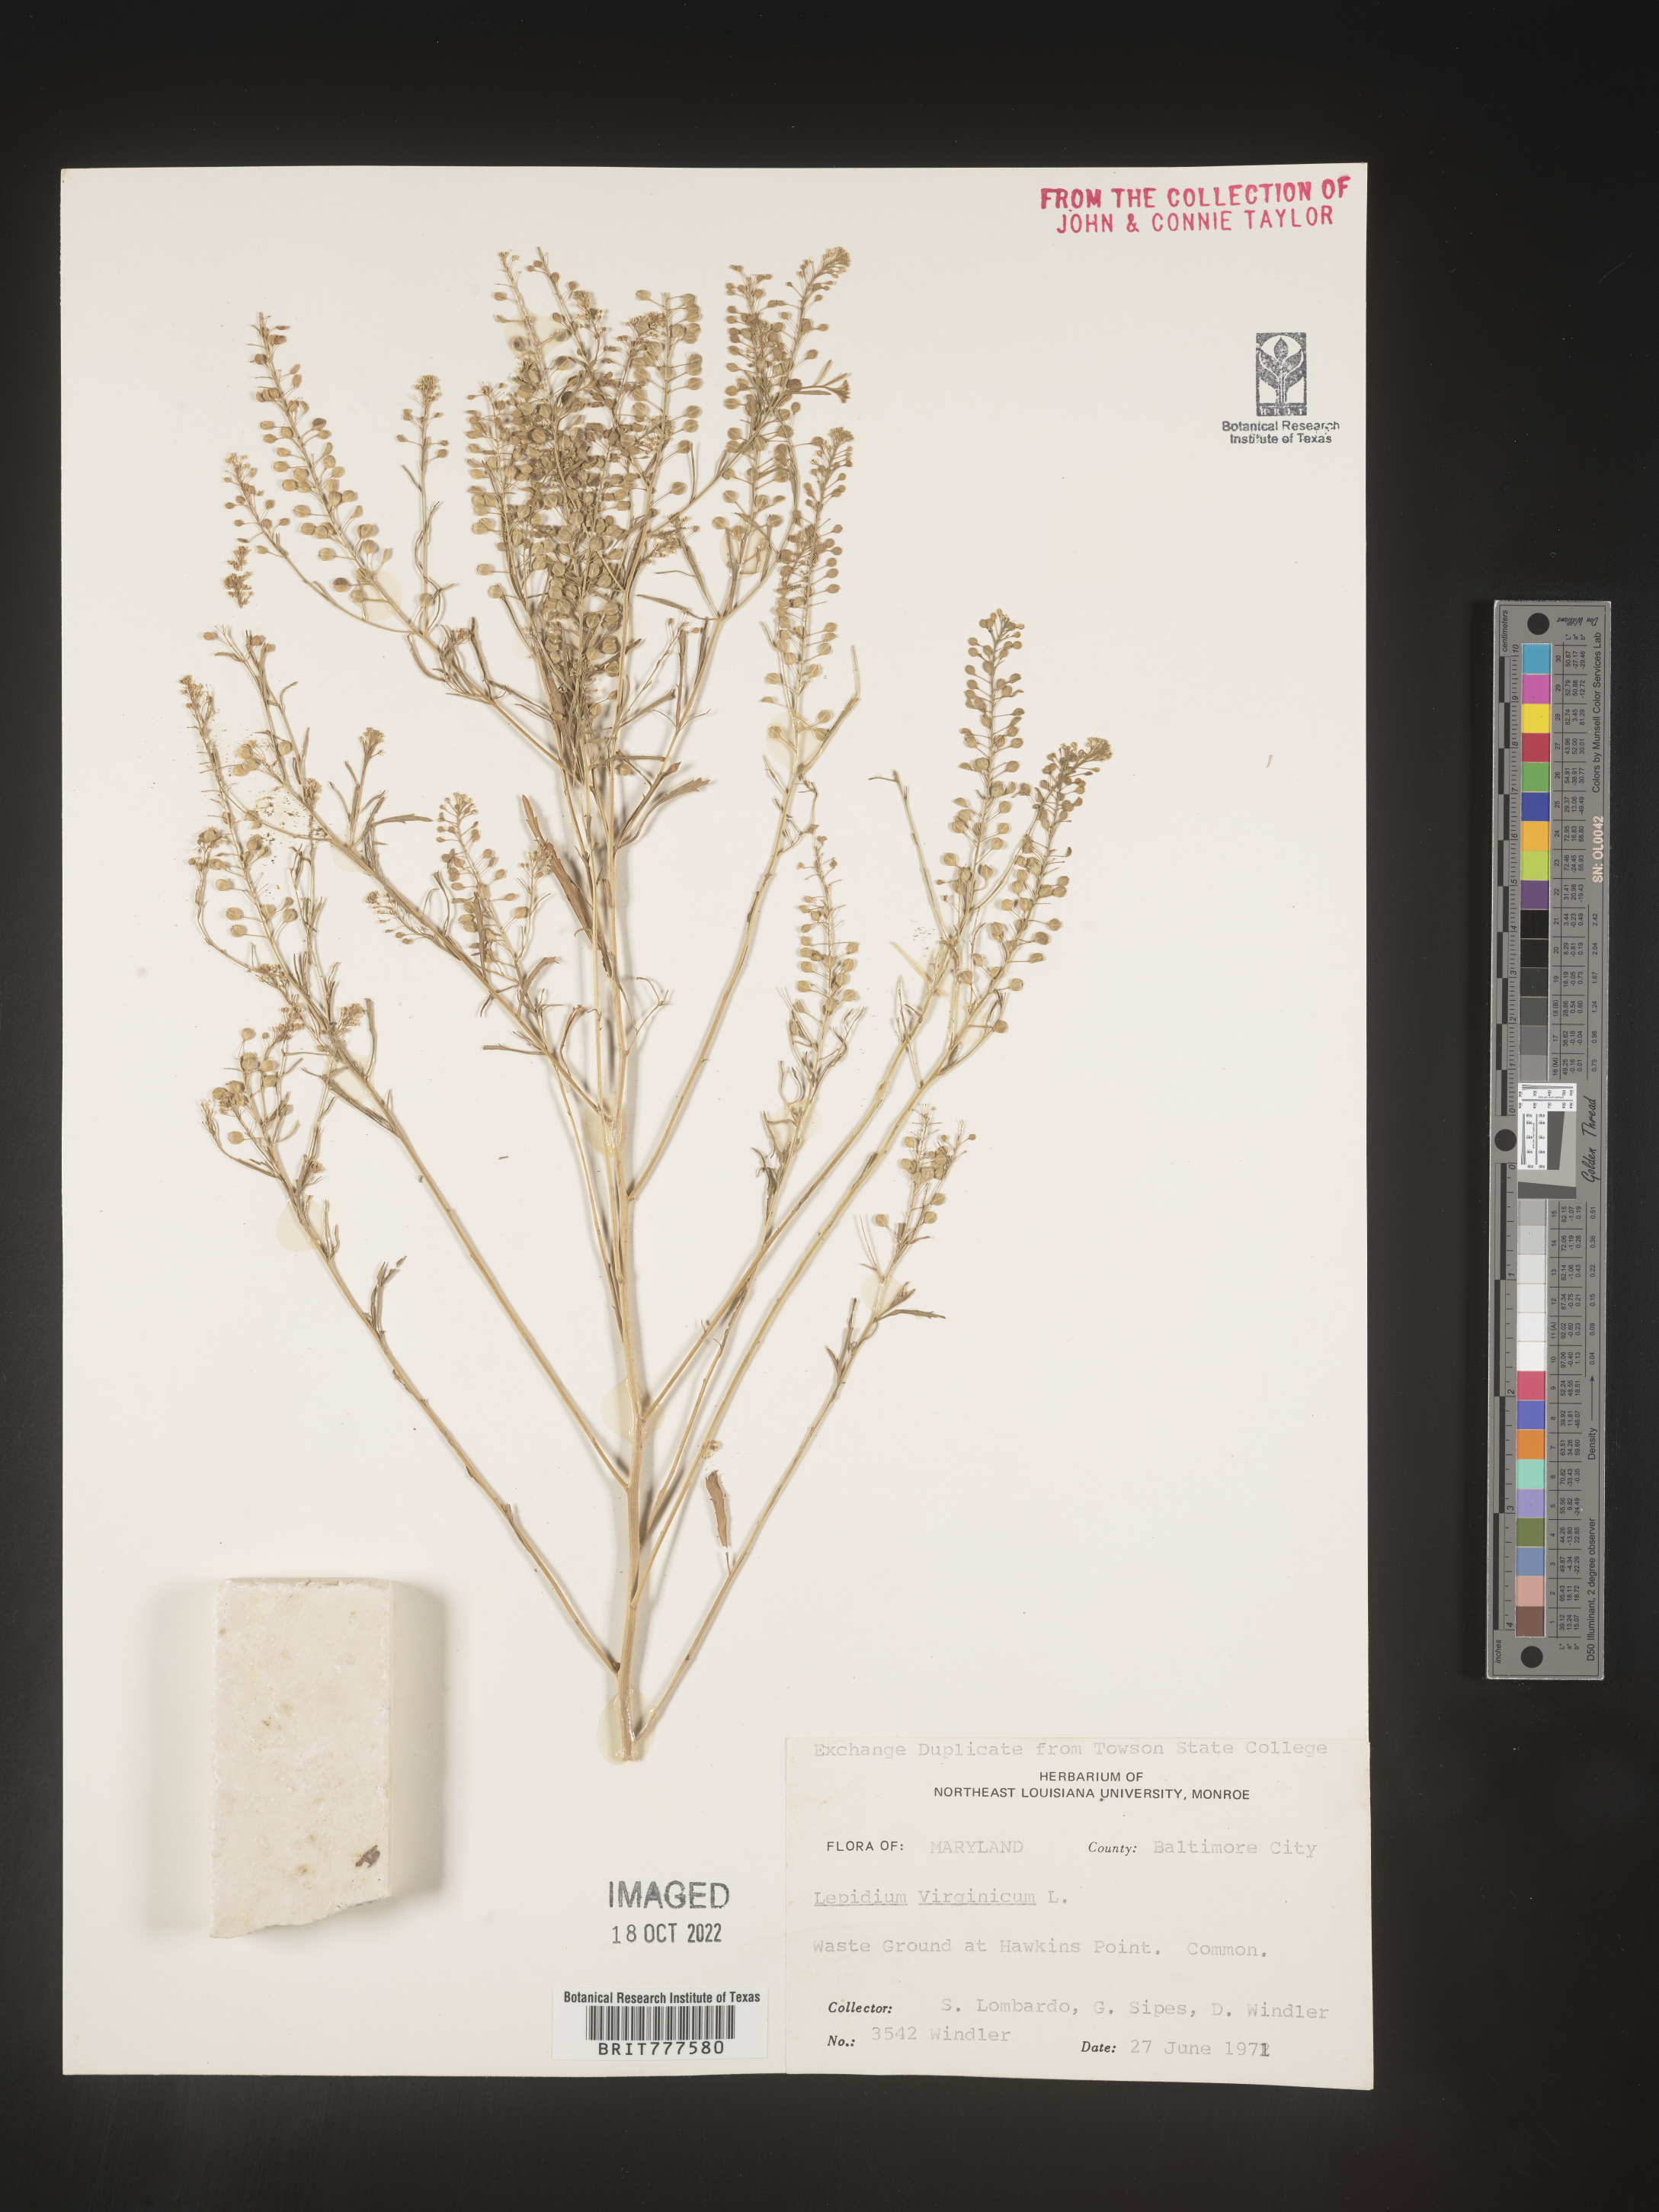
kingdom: Plantae
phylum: Tracheophyta
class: Magnoliopsida
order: Brassicales
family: Brassicaceae
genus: Lepidium
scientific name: Lepidium virginicum
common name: Least pepperwort
